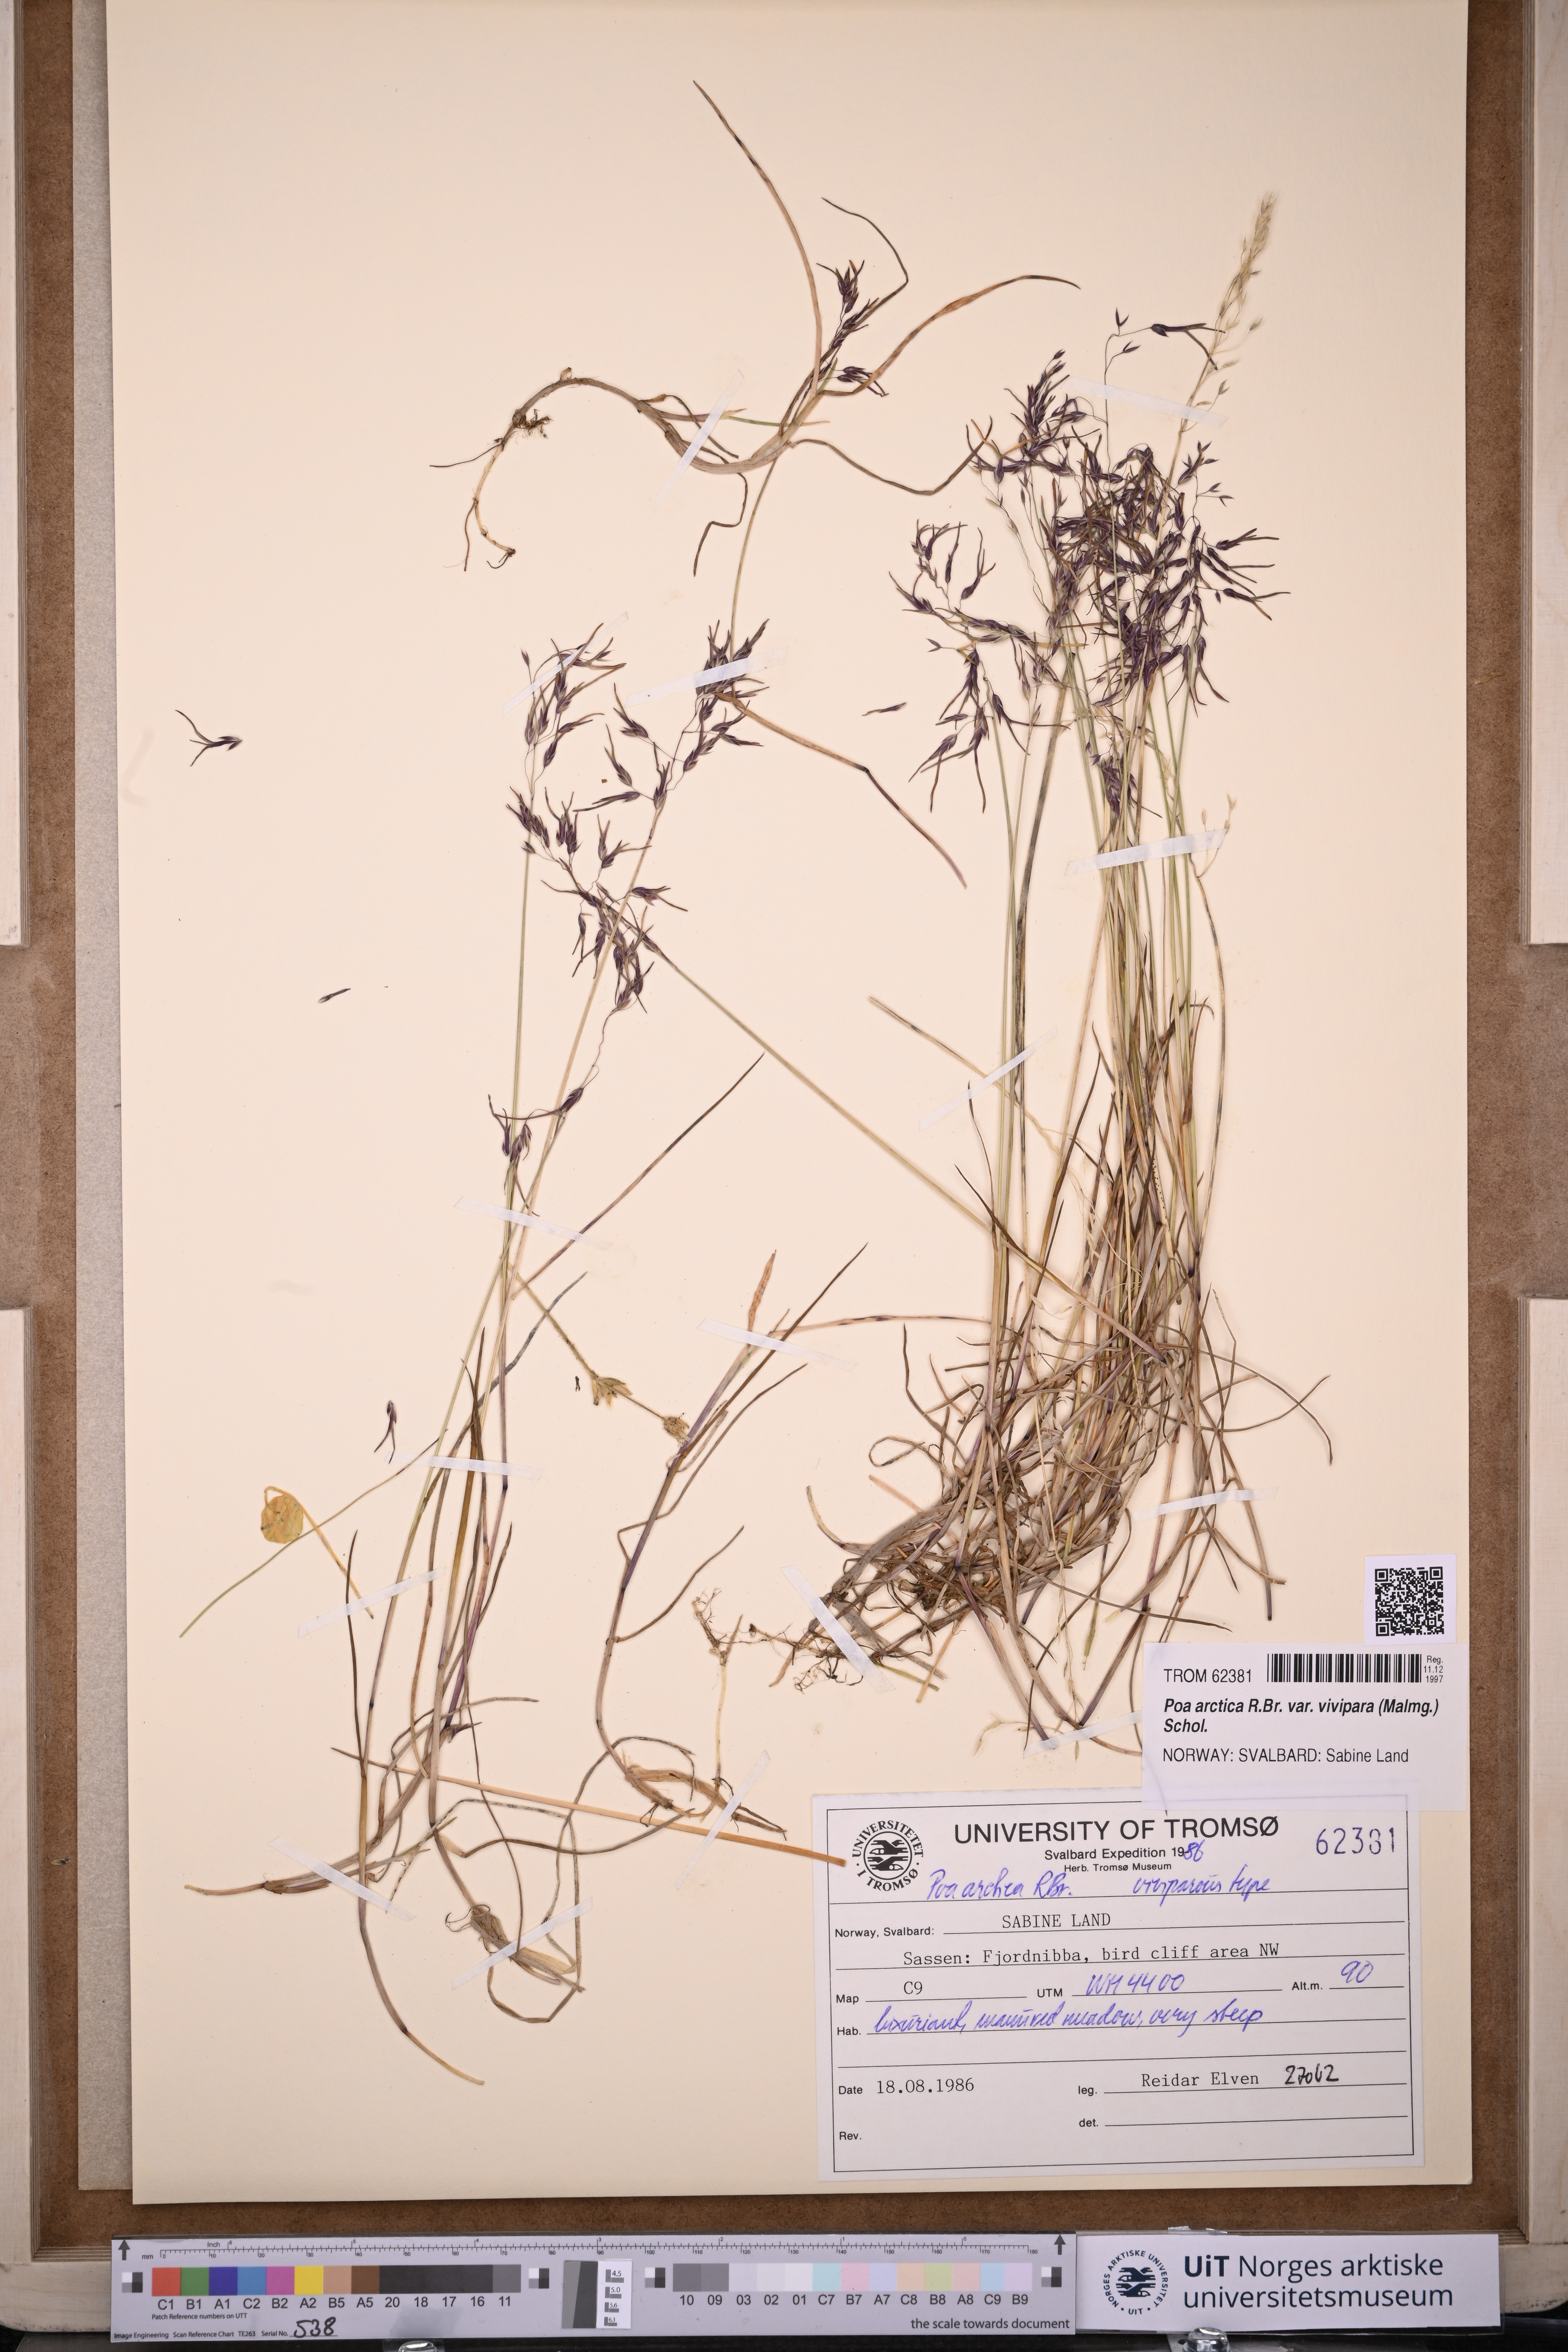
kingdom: Plantae
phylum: Tracheophyta
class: Liliopsida
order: Poales
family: Poaceae
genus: Poa
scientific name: Poa arctica
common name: Arctic bluegrass
